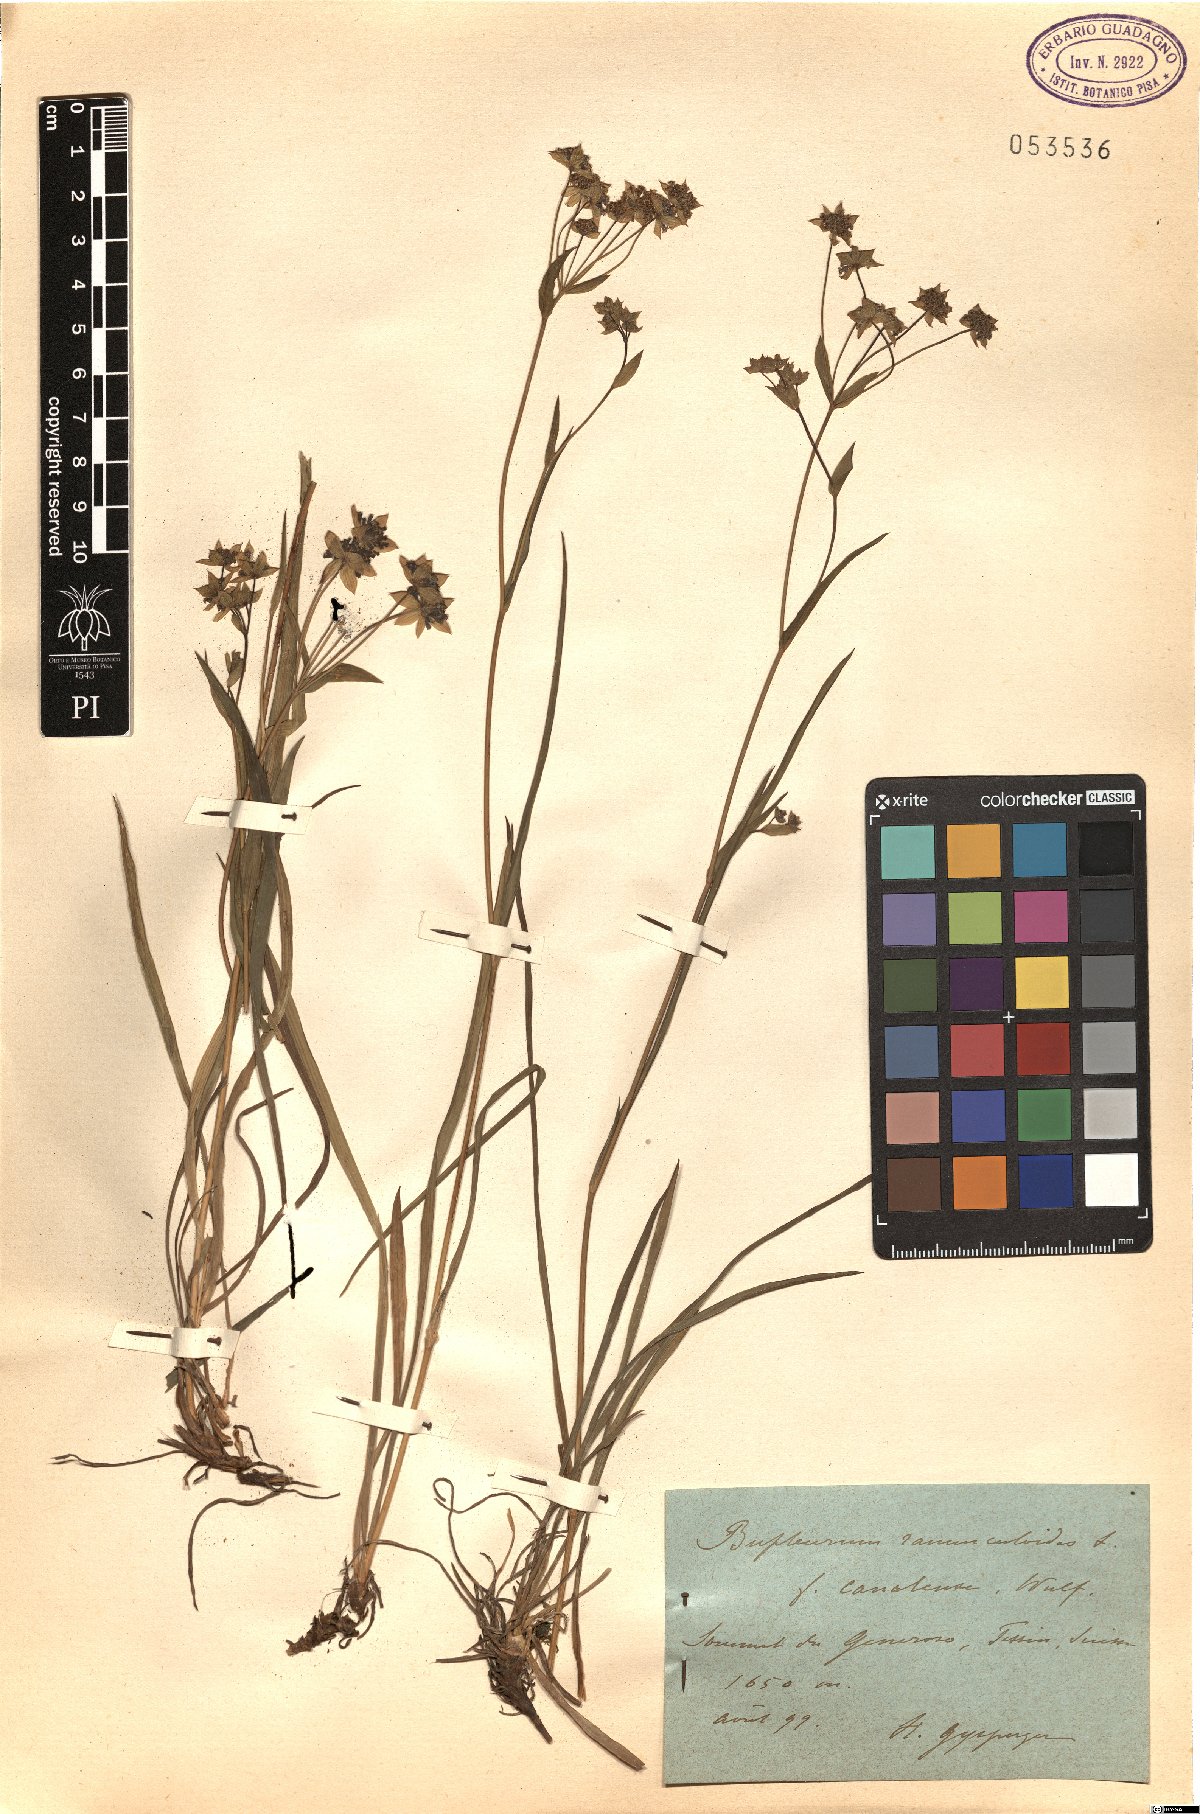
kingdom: Plantae
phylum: Tracheophyta
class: Magnoliopsida
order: Apiales
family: Apiaceae
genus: Bupleurum
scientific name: Bupleurum ranunculoides
